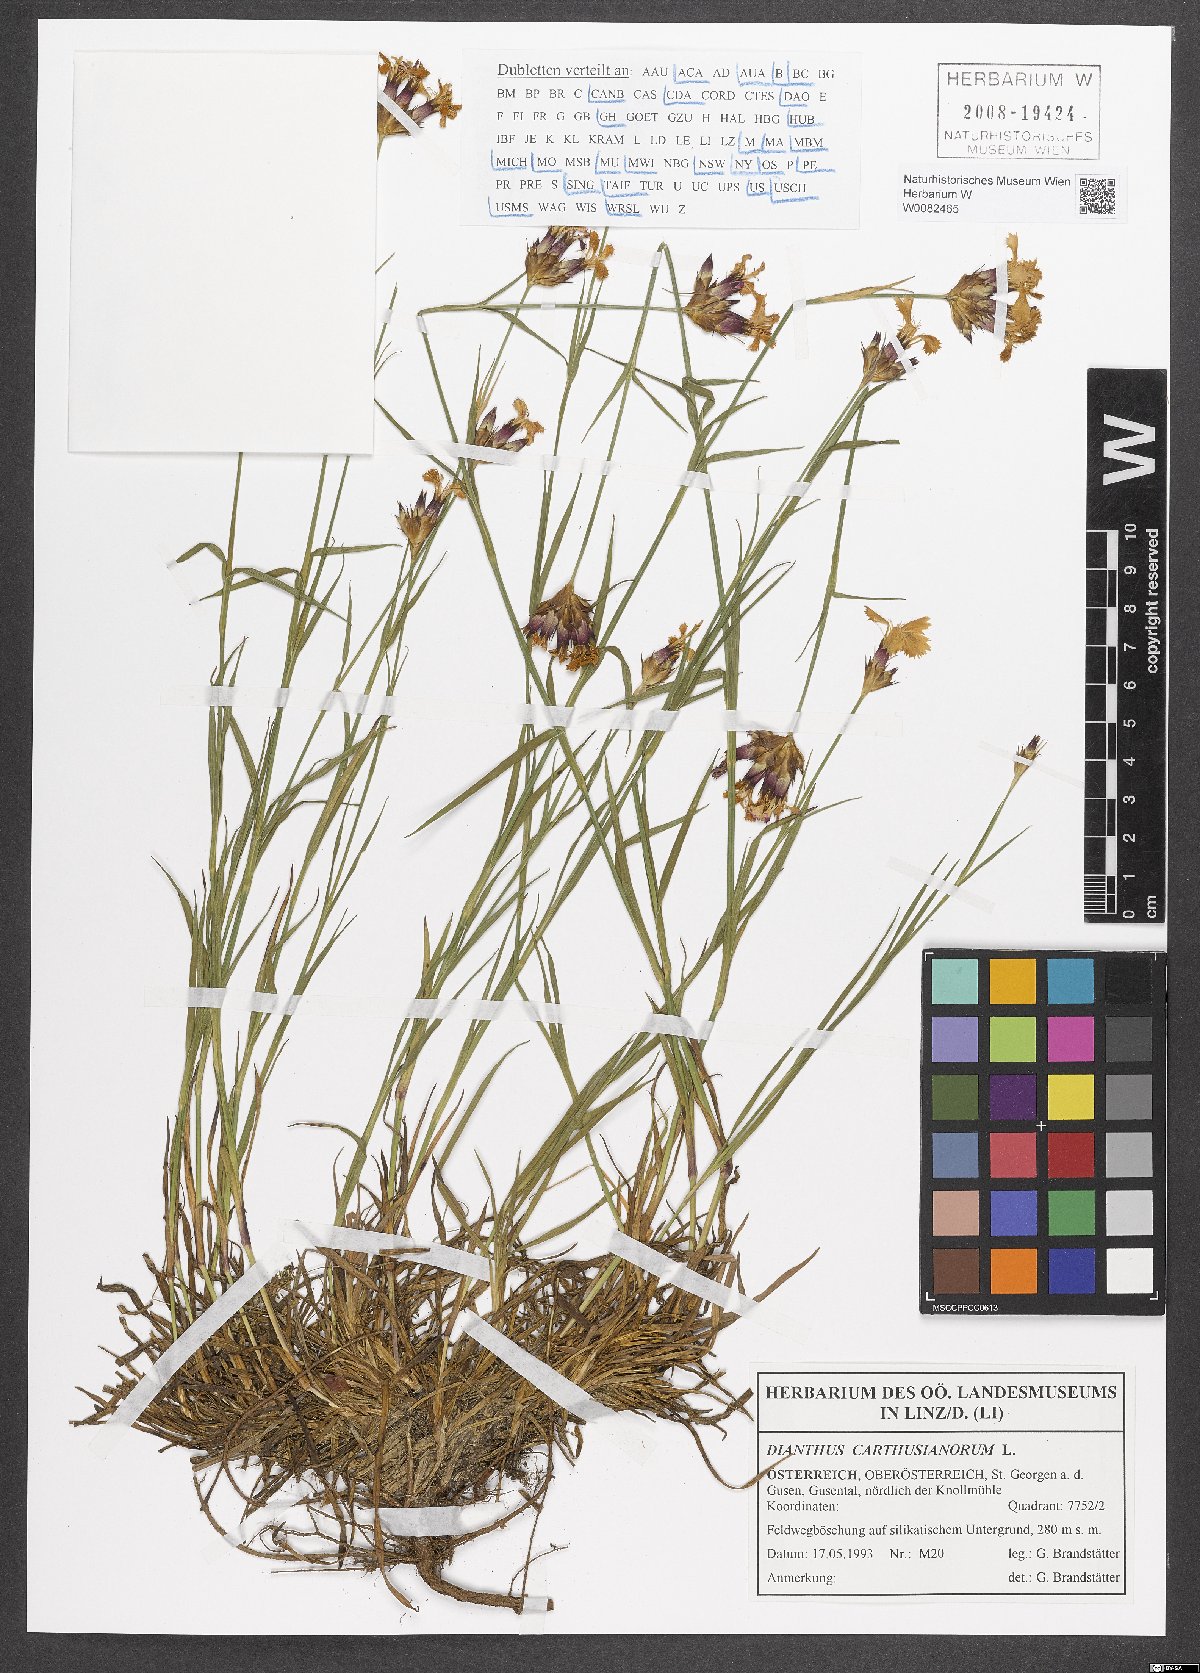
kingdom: Plantae
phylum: Tracheophyta
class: Magnoliopsida
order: Caryophyllales
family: Caryophyllaceae
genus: Dianthus
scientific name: Dianthus carthusianorum
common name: Carthusian pink
